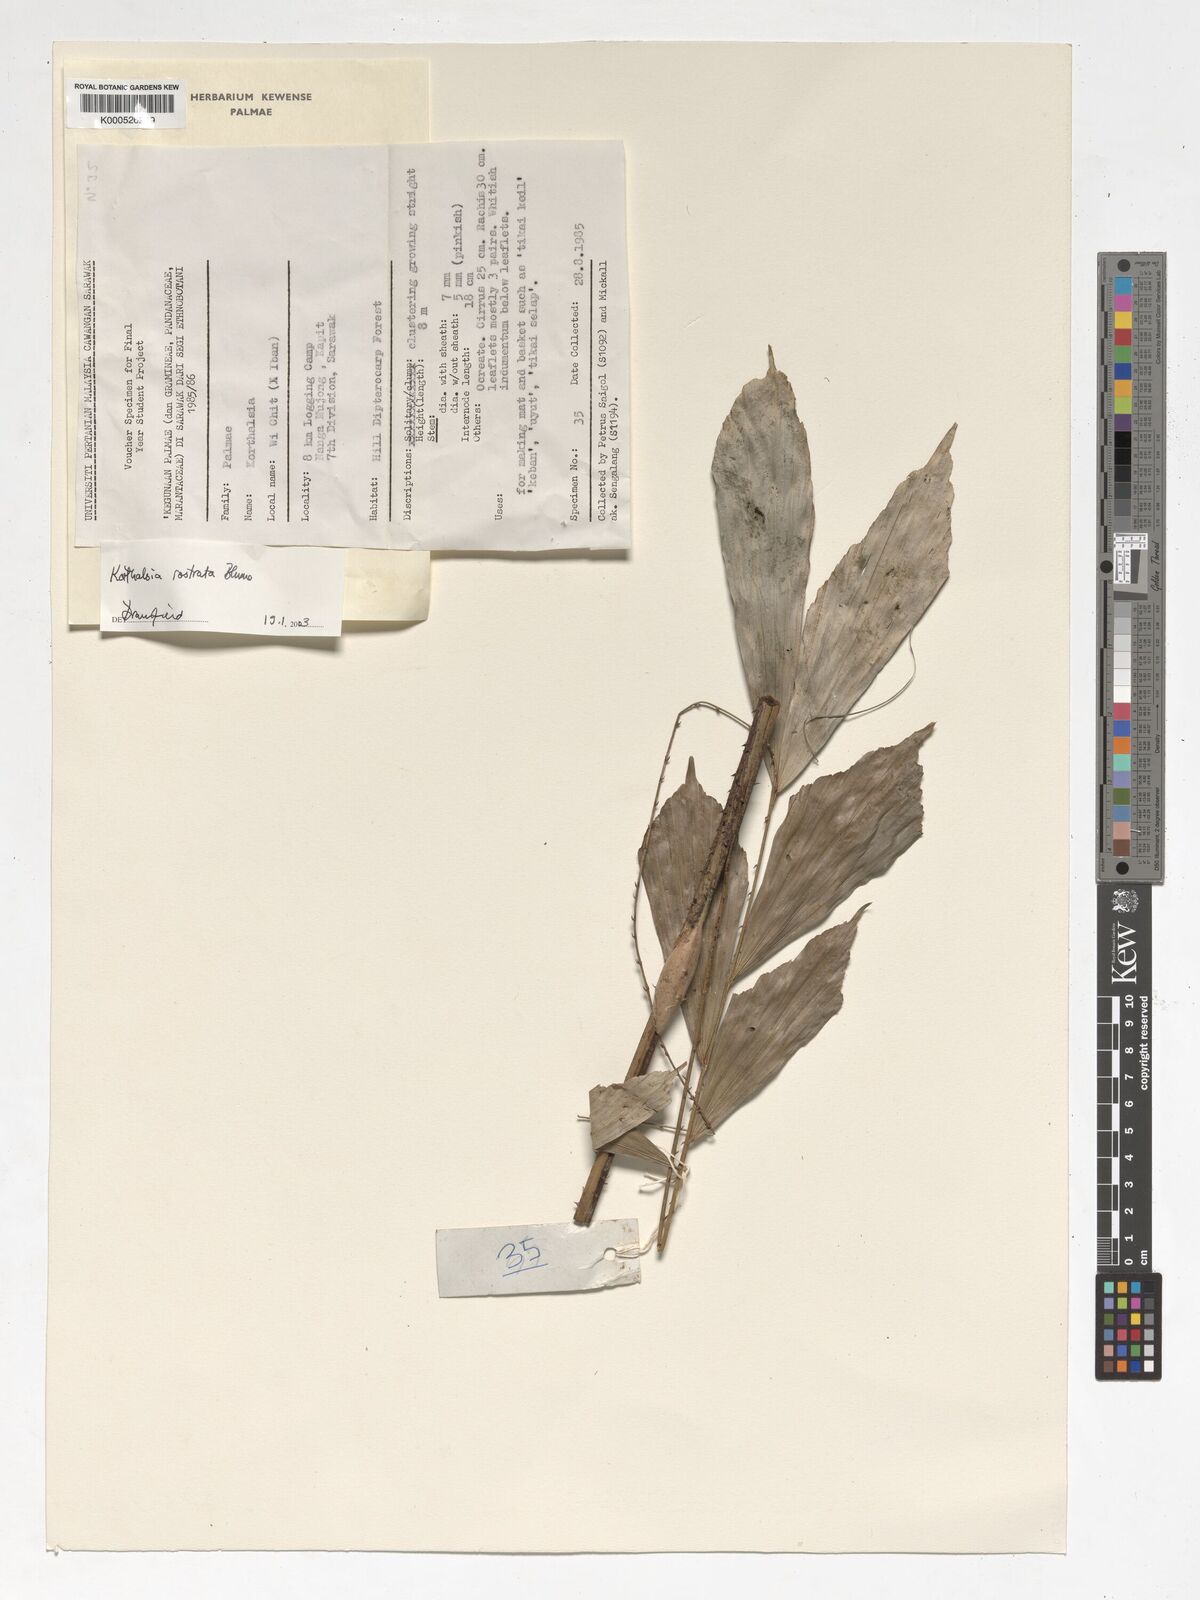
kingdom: Plantae
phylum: Tracheophyta
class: Liliopsida
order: Arecales
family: Arecaceae
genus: Korthalsia
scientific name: Korthalsia rostrata
